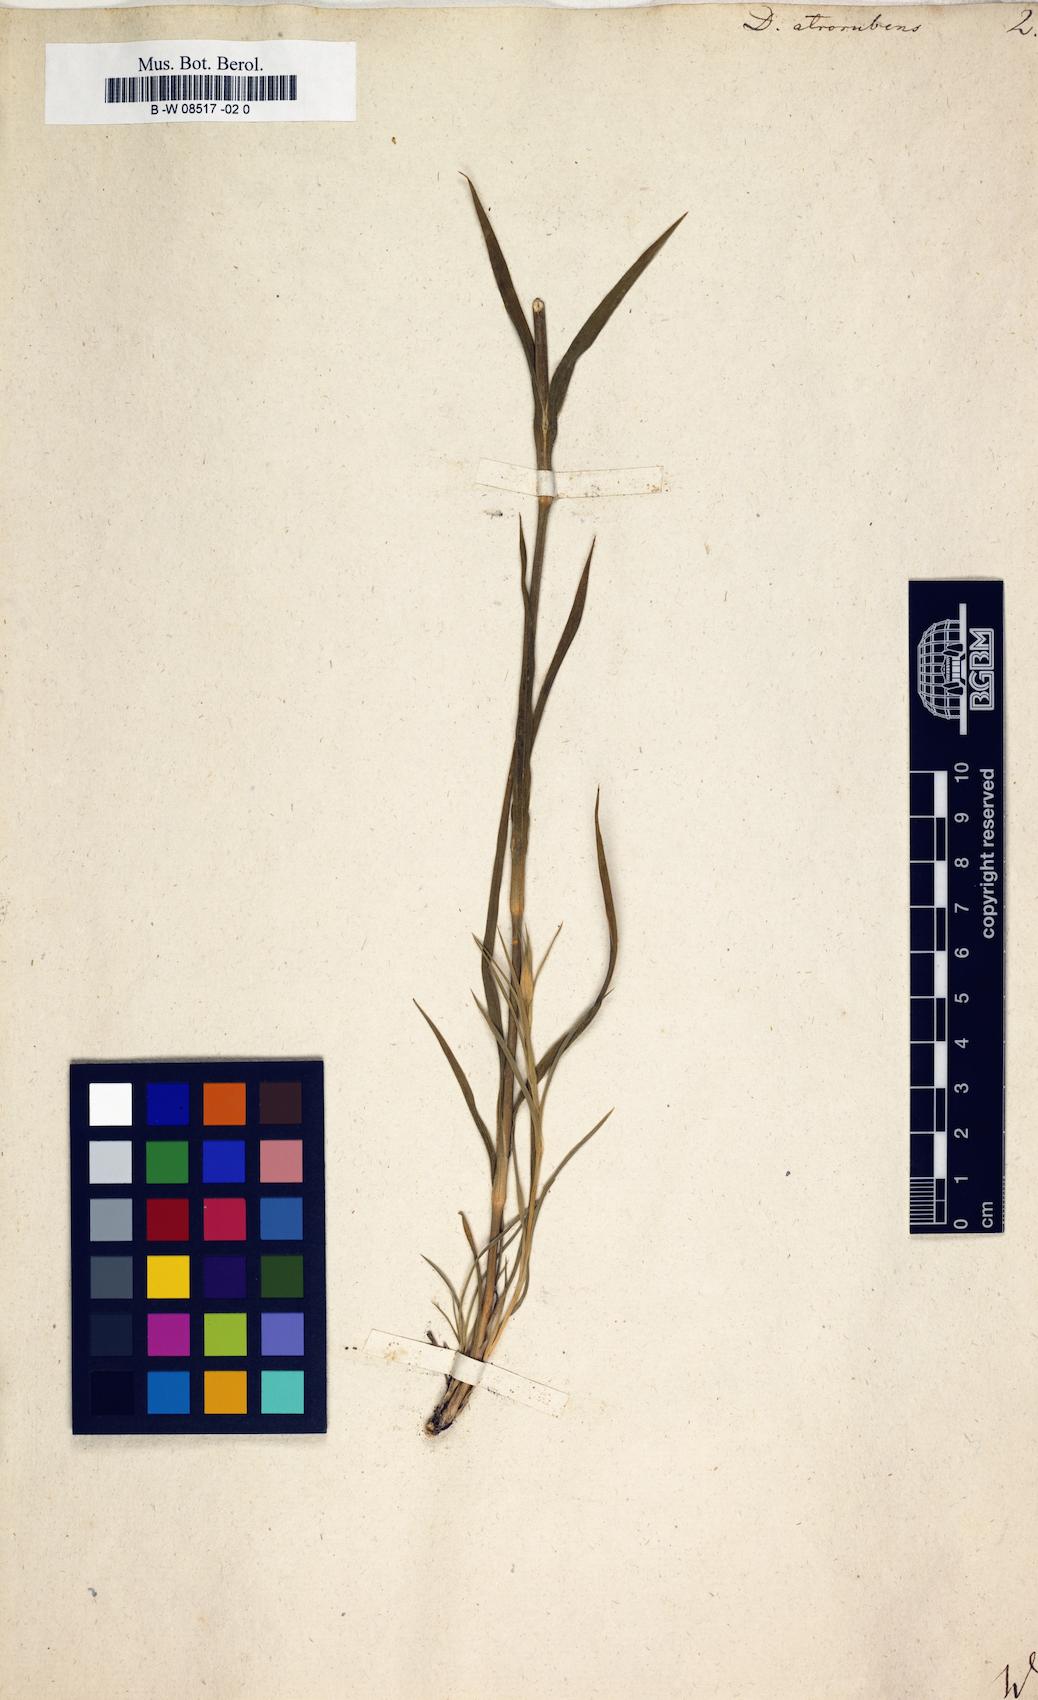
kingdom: Plantae
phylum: Tracheophyta
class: Magnoliopsida
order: Caryophyllales
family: Caryophyllaceae
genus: Dianthus
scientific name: Dianthus atrorubens
